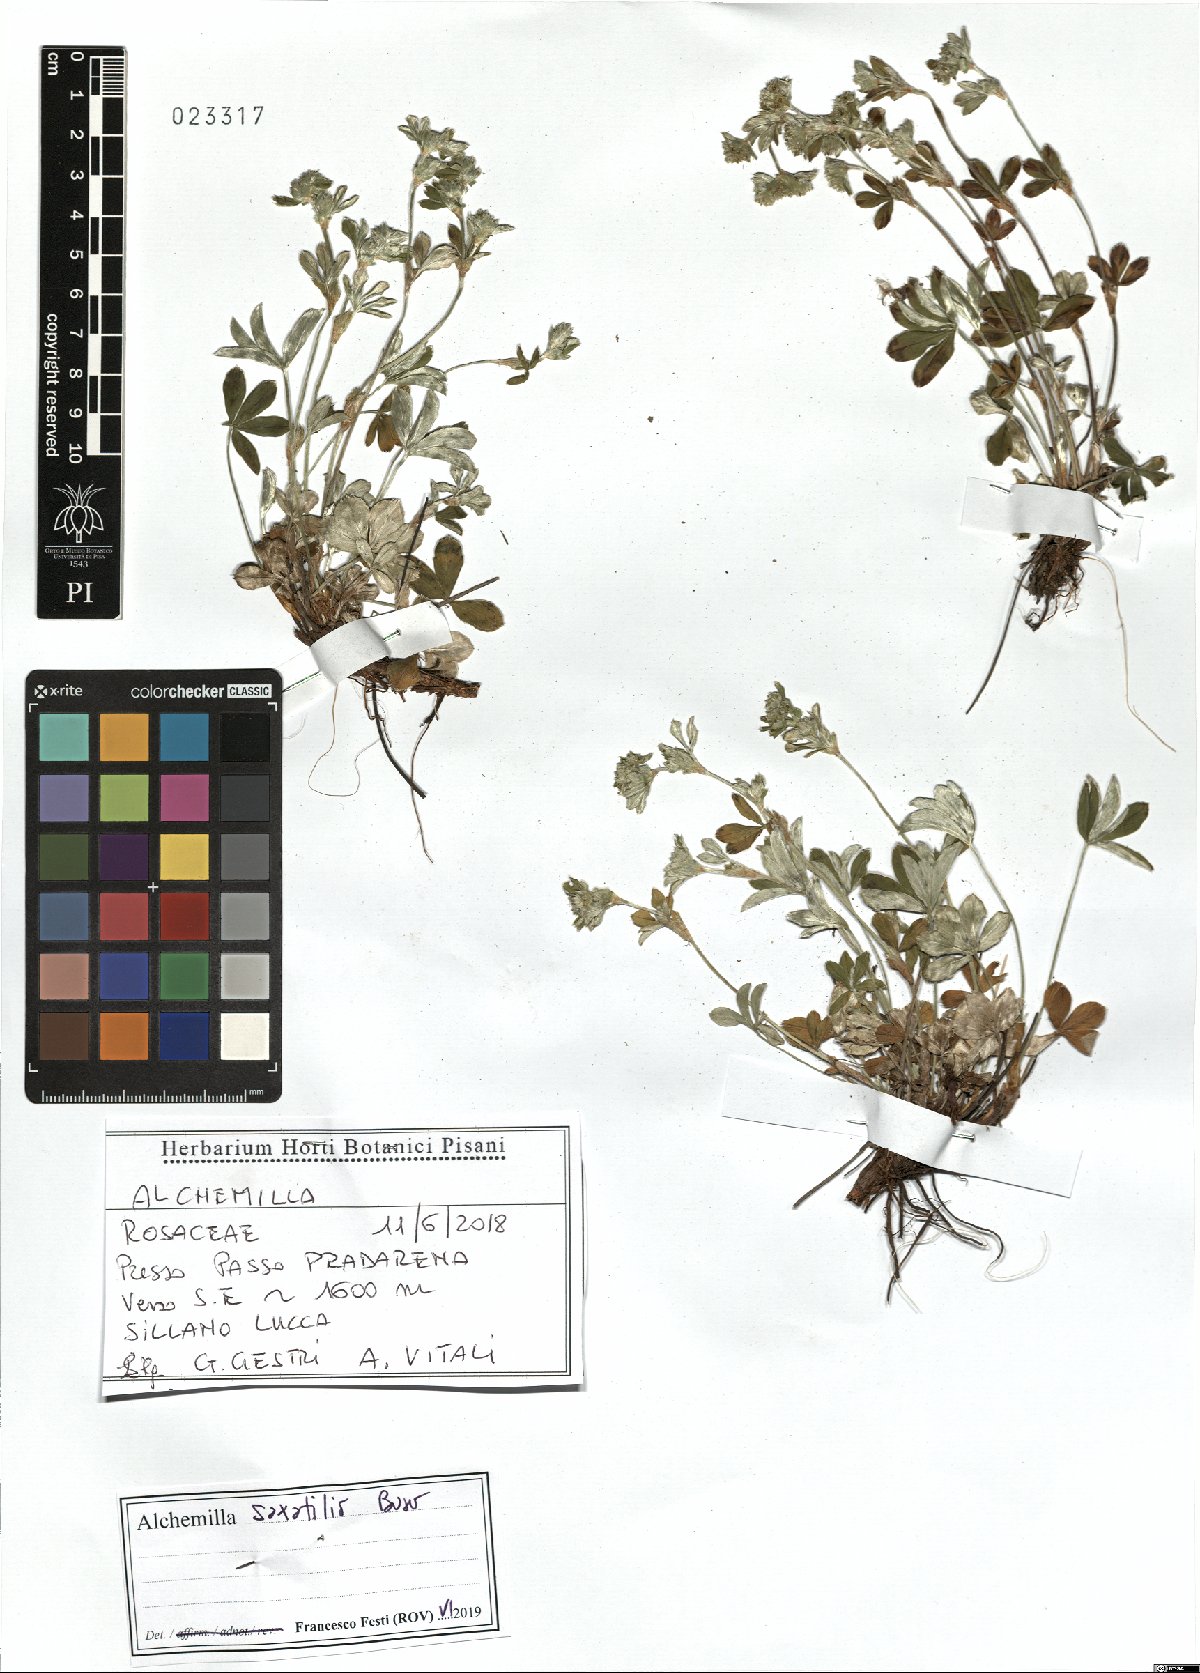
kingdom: Plantae
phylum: Tracheophyta
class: Magnoliopsida
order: Rosales
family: Rosaceae
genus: Alchemilla
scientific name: Alchemilla saxatilis
